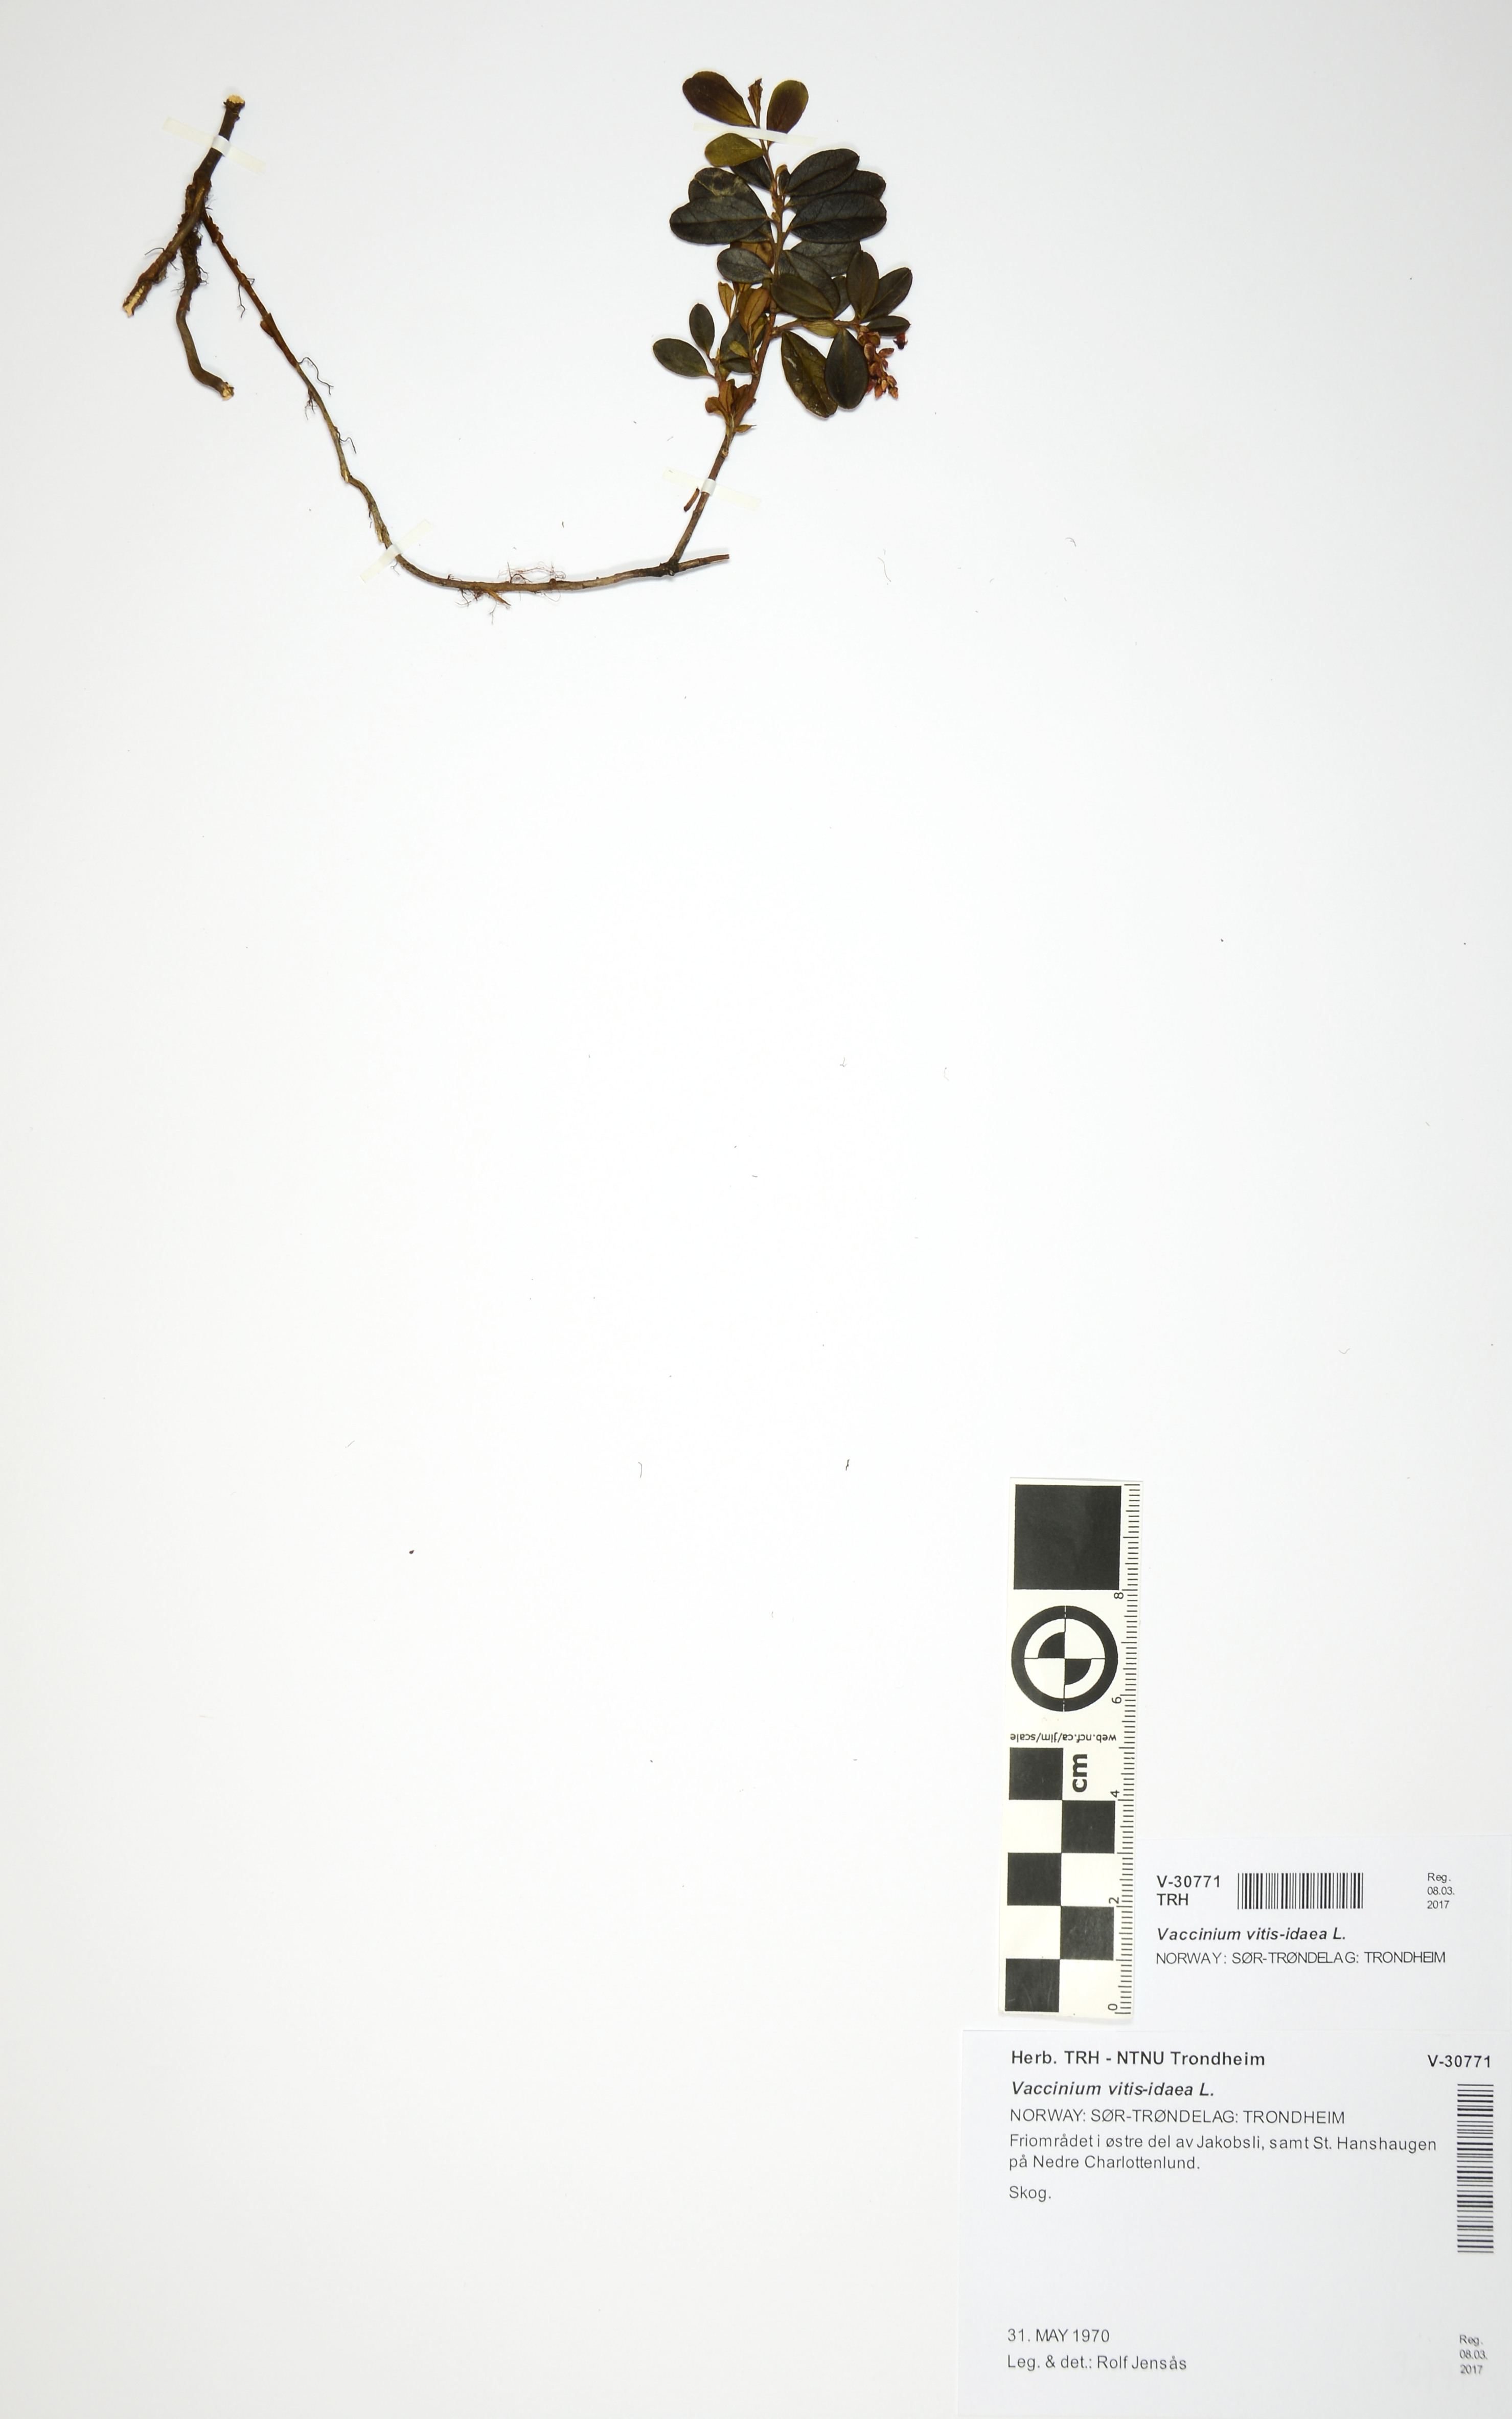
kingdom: Plantae
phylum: Tracheophyta
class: Magnoliopsida
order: Ericales
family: Ericaceae
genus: Vaccinium
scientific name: Vaccinium vitis-idaea
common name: Cowberry
